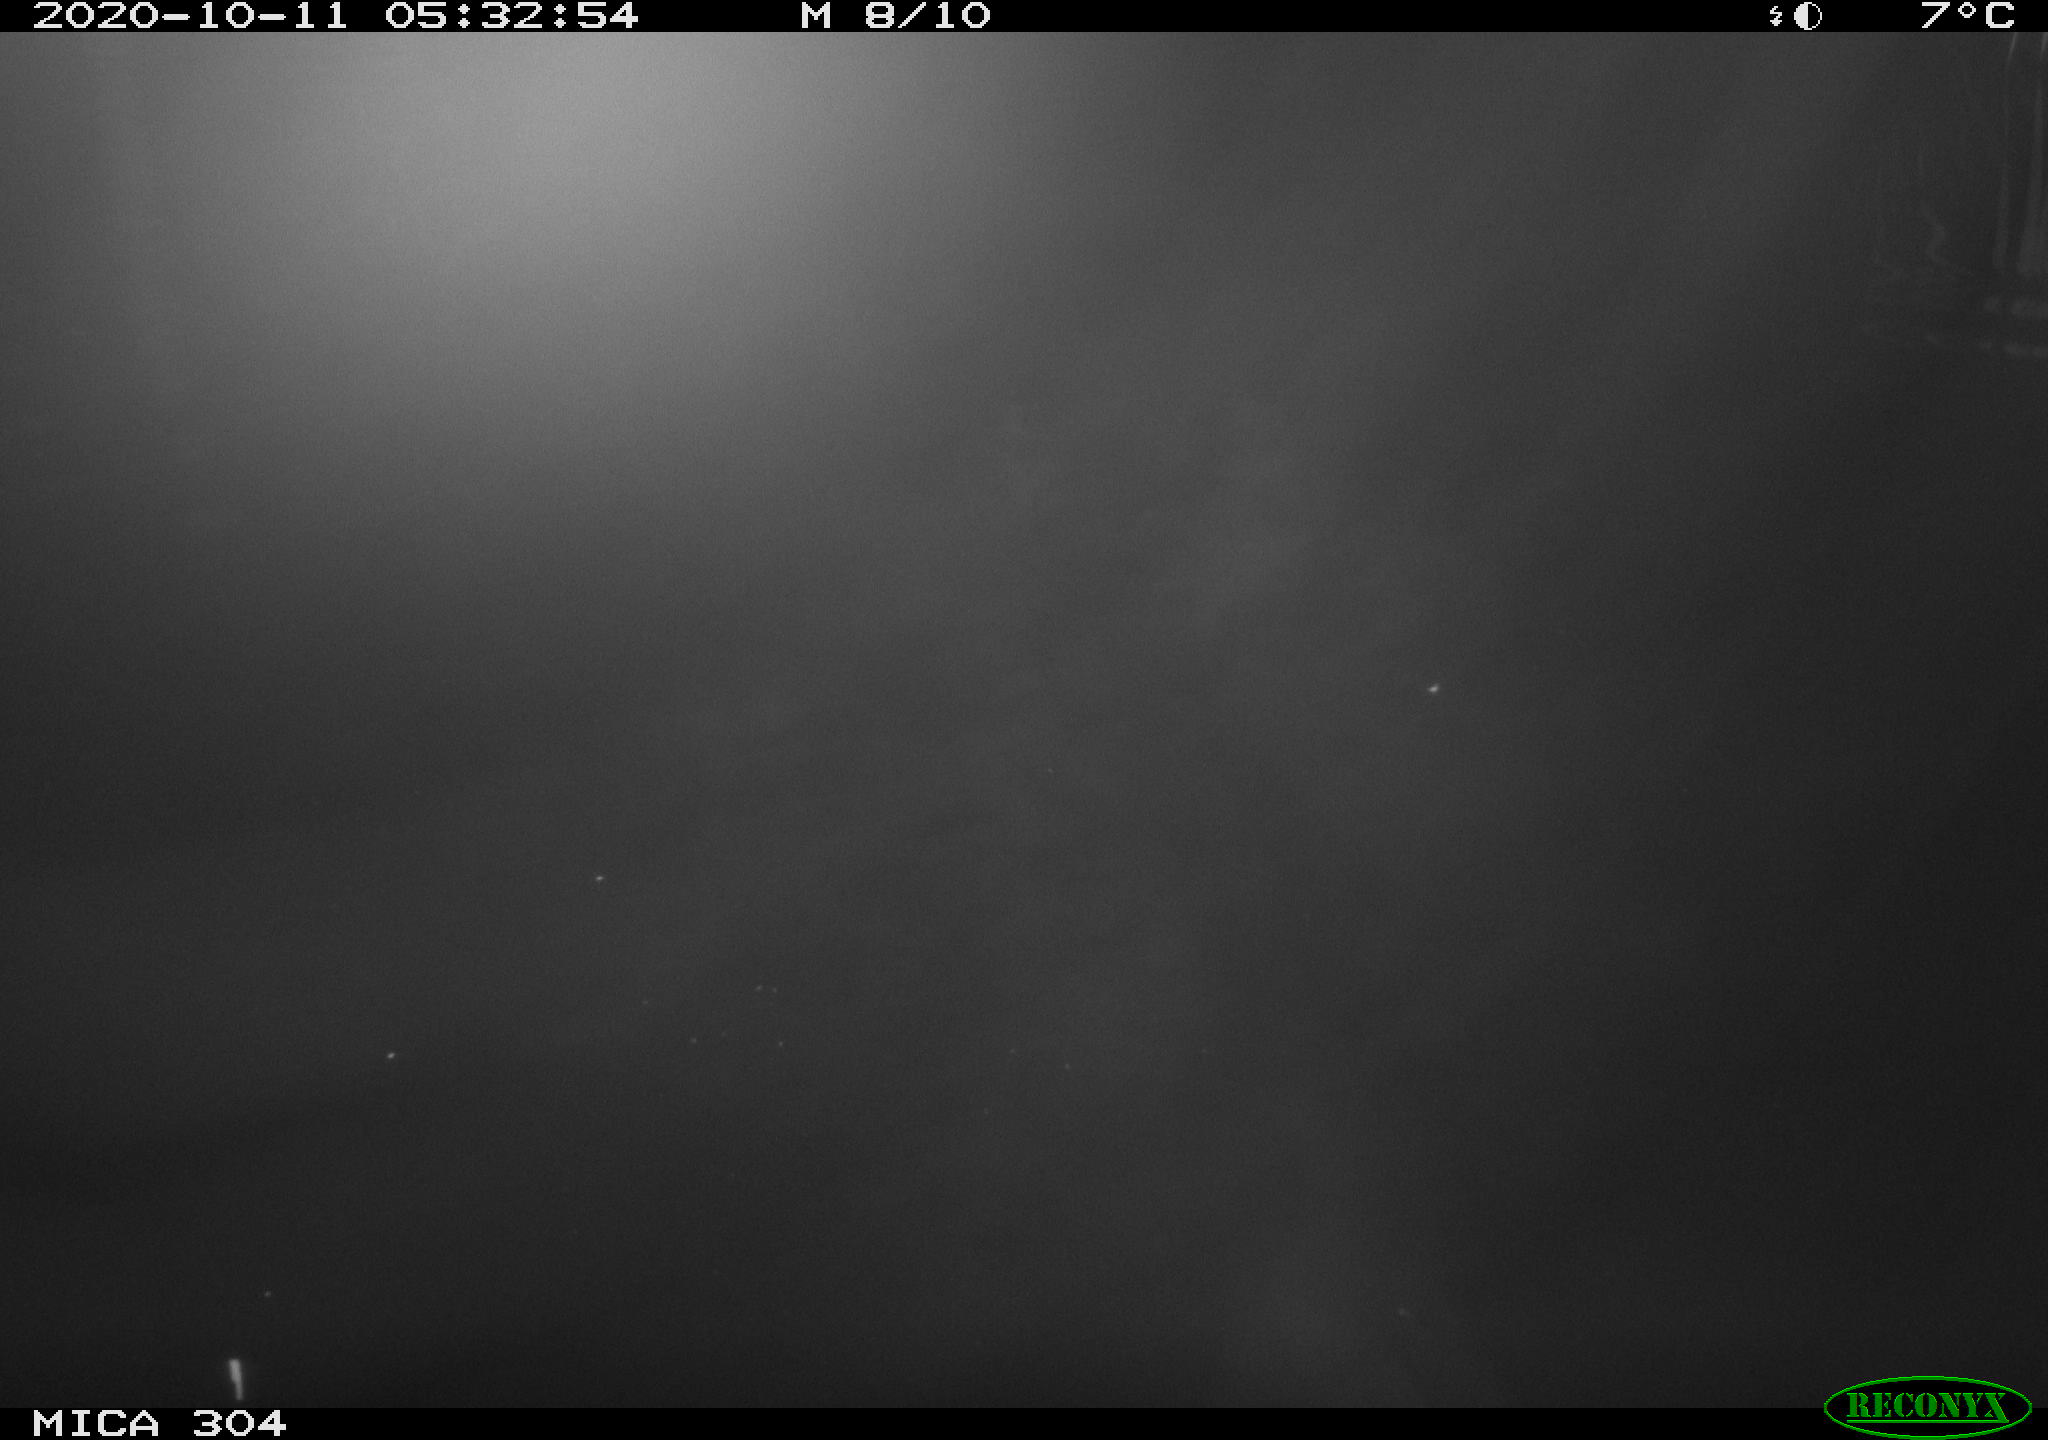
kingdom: Animalia
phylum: Chordata
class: Mammalia
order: Rodentia
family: Muridae
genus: Rattus
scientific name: Rattus norvegicus
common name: Brown rat
